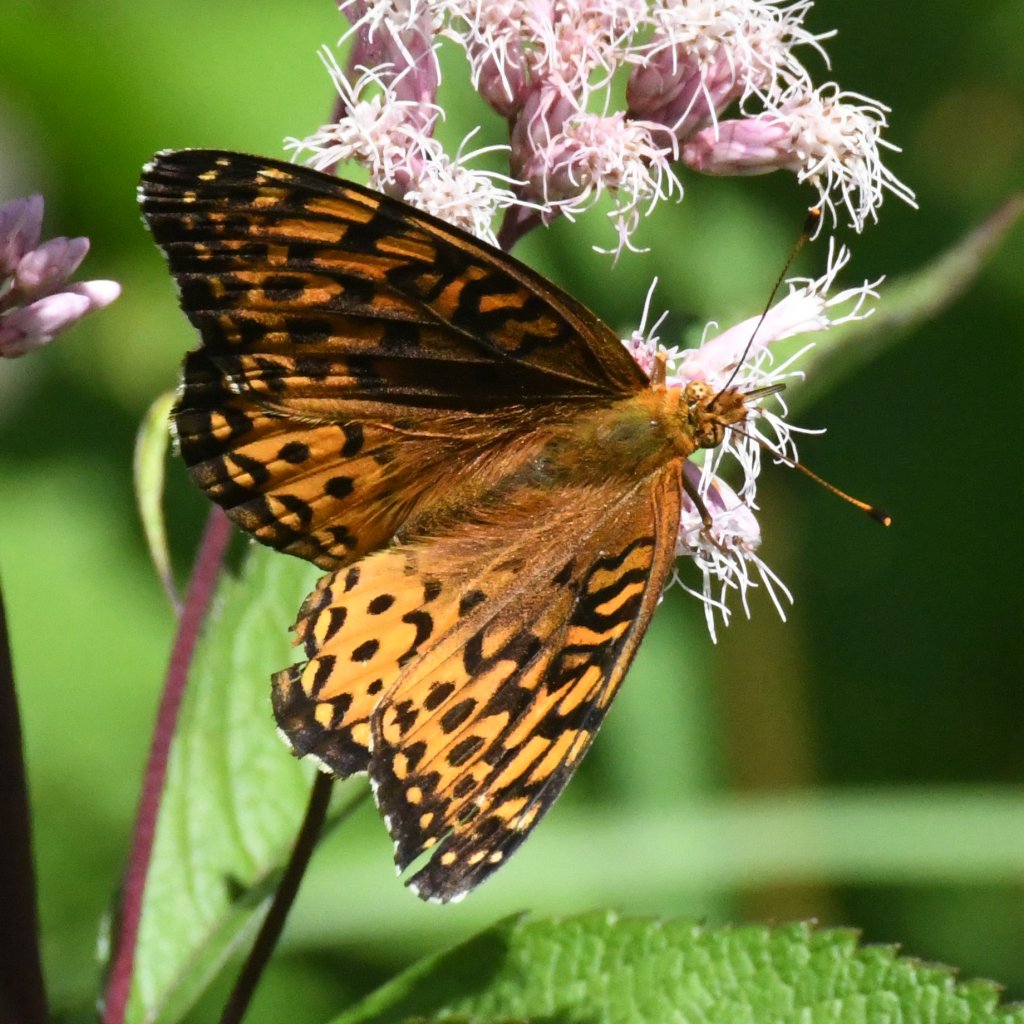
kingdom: Animalia
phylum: Arthropoda
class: Insecta
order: Lepidoptera
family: Nymphalidae
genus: Speyeria
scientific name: Speyeria aphrodite
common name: Aphrodite Fritillary
